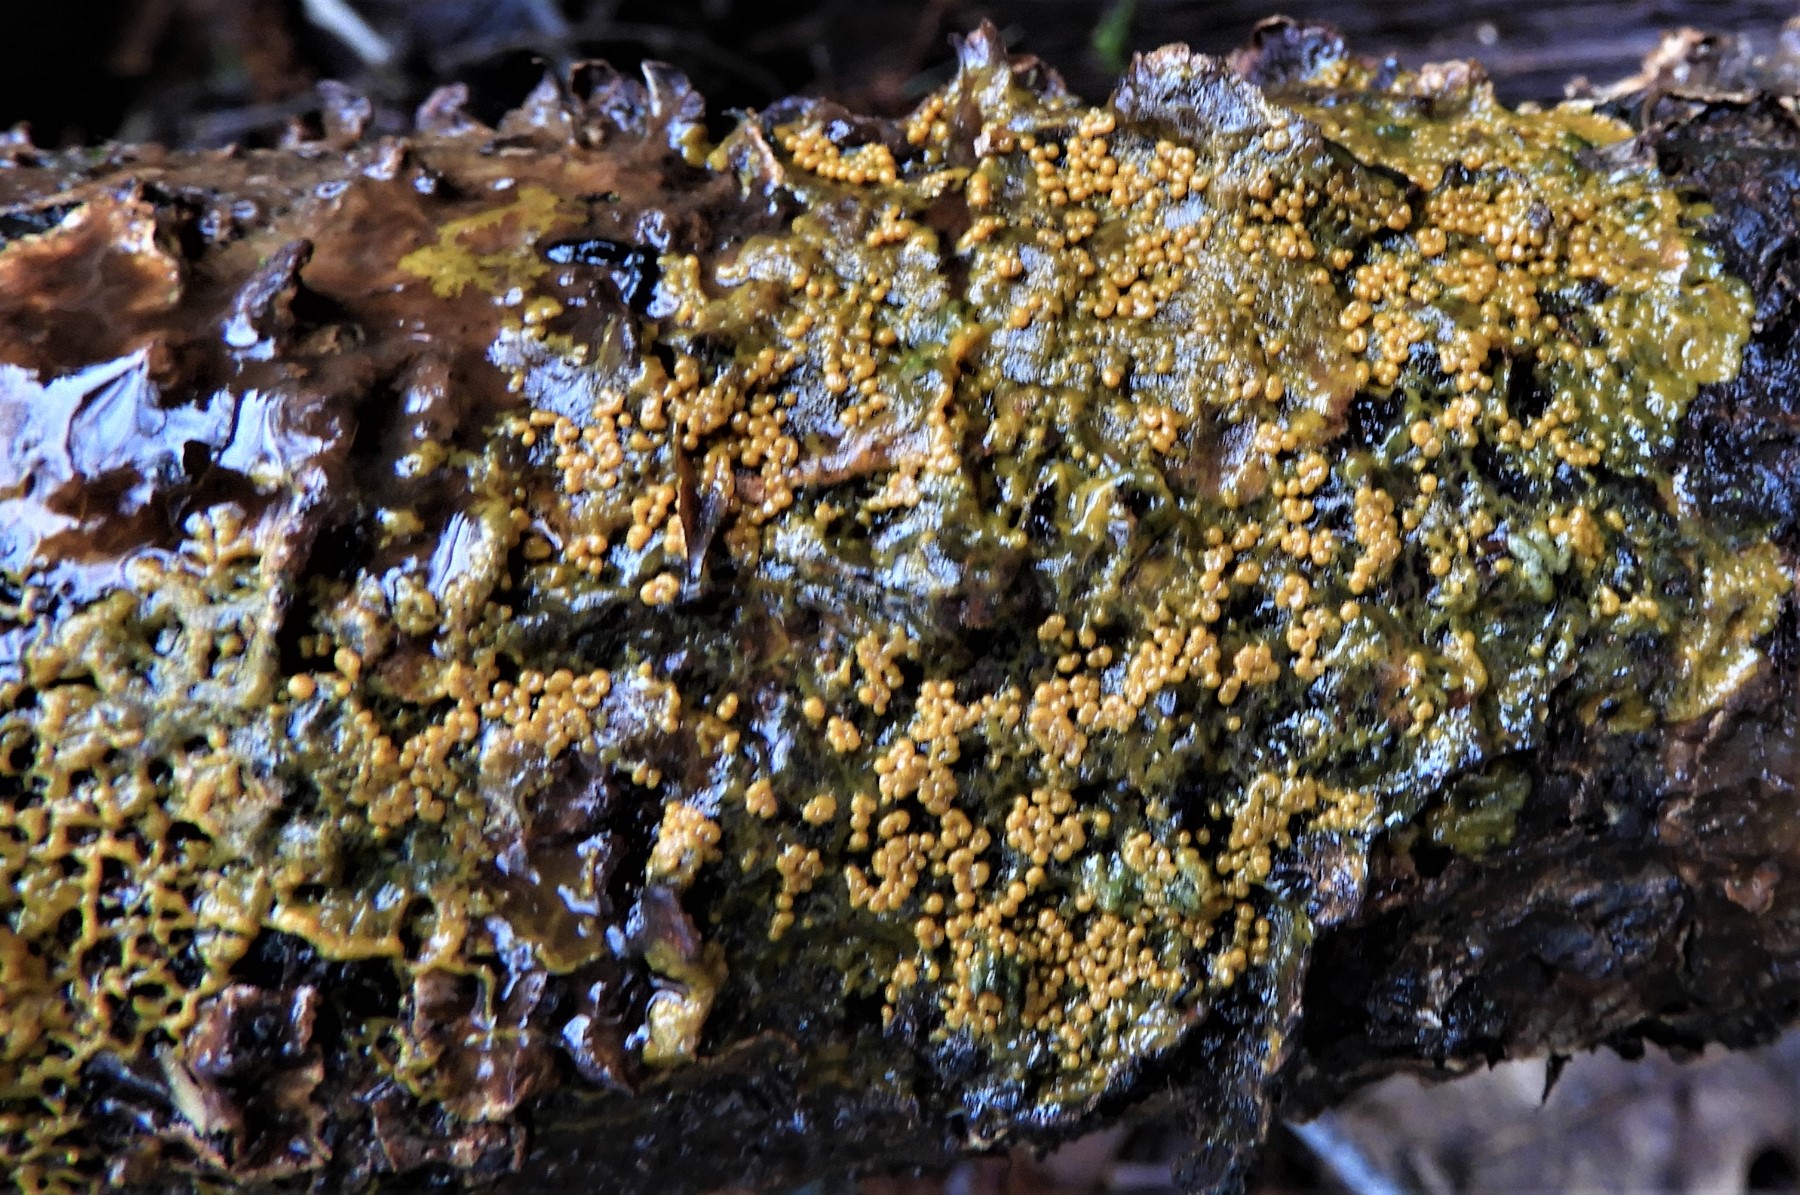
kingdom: Protozoa
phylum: Mycetozoa
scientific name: Mycetozoa
